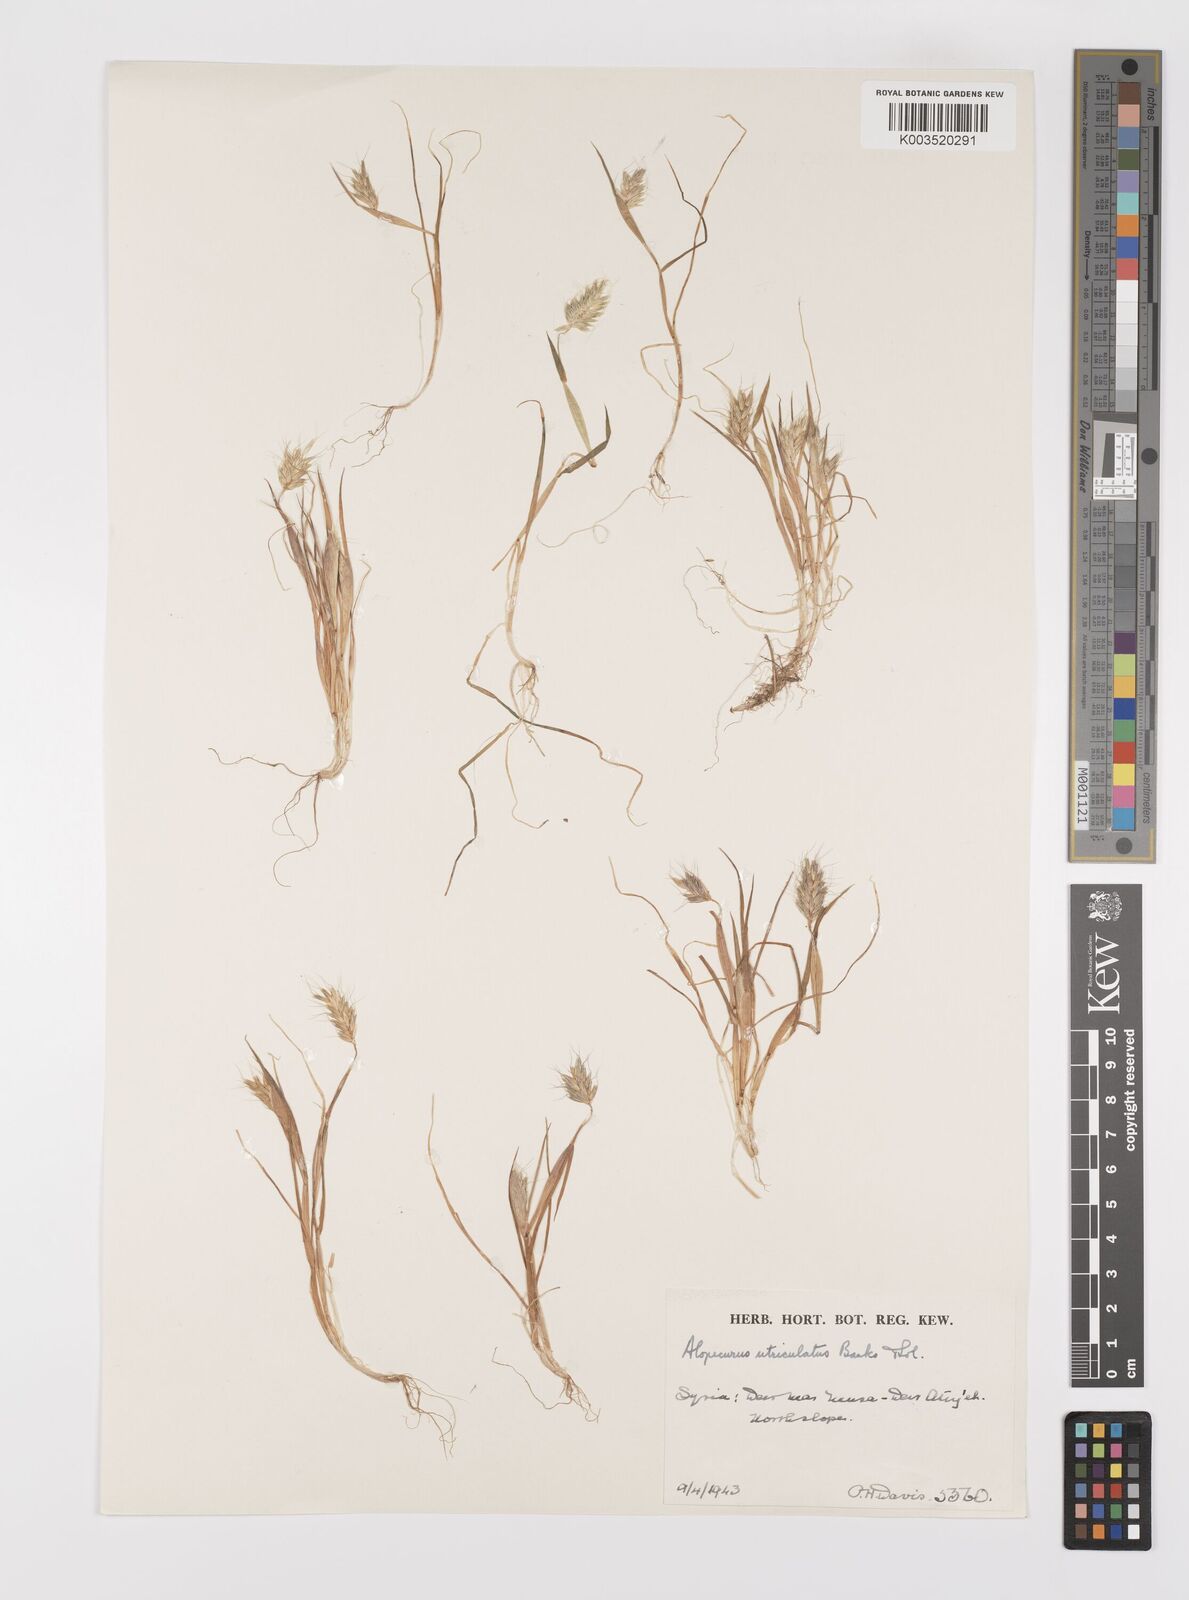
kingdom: Plantae
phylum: Tracheophyta
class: Liliopsida
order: Poales
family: Poaceae
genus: Alopecurus
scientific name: Alopecurus utriculatus
